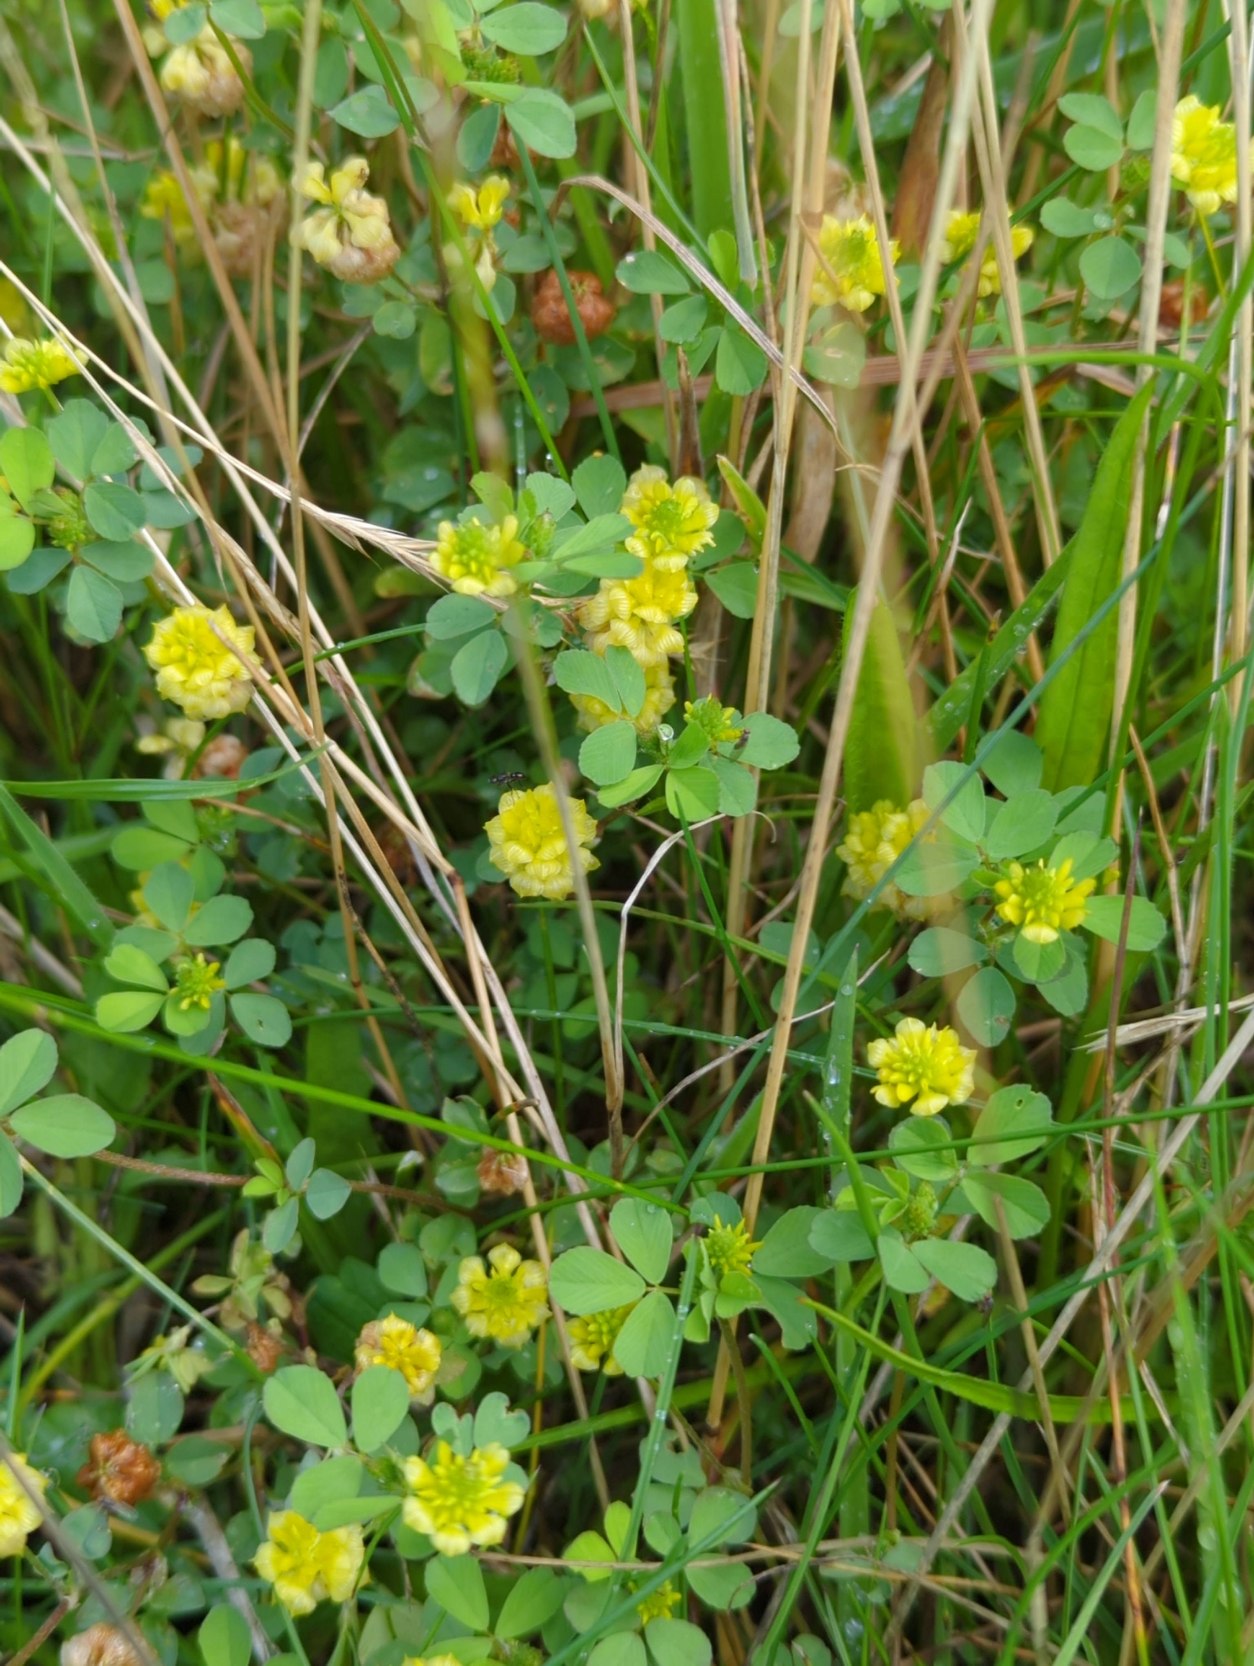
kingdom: Plantae
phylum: Tracheophyta
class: Magnoliopsida
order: Fabales
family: Fabaceae
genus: Trifolium
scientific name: Trifolium campestre
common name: Gul kløver
